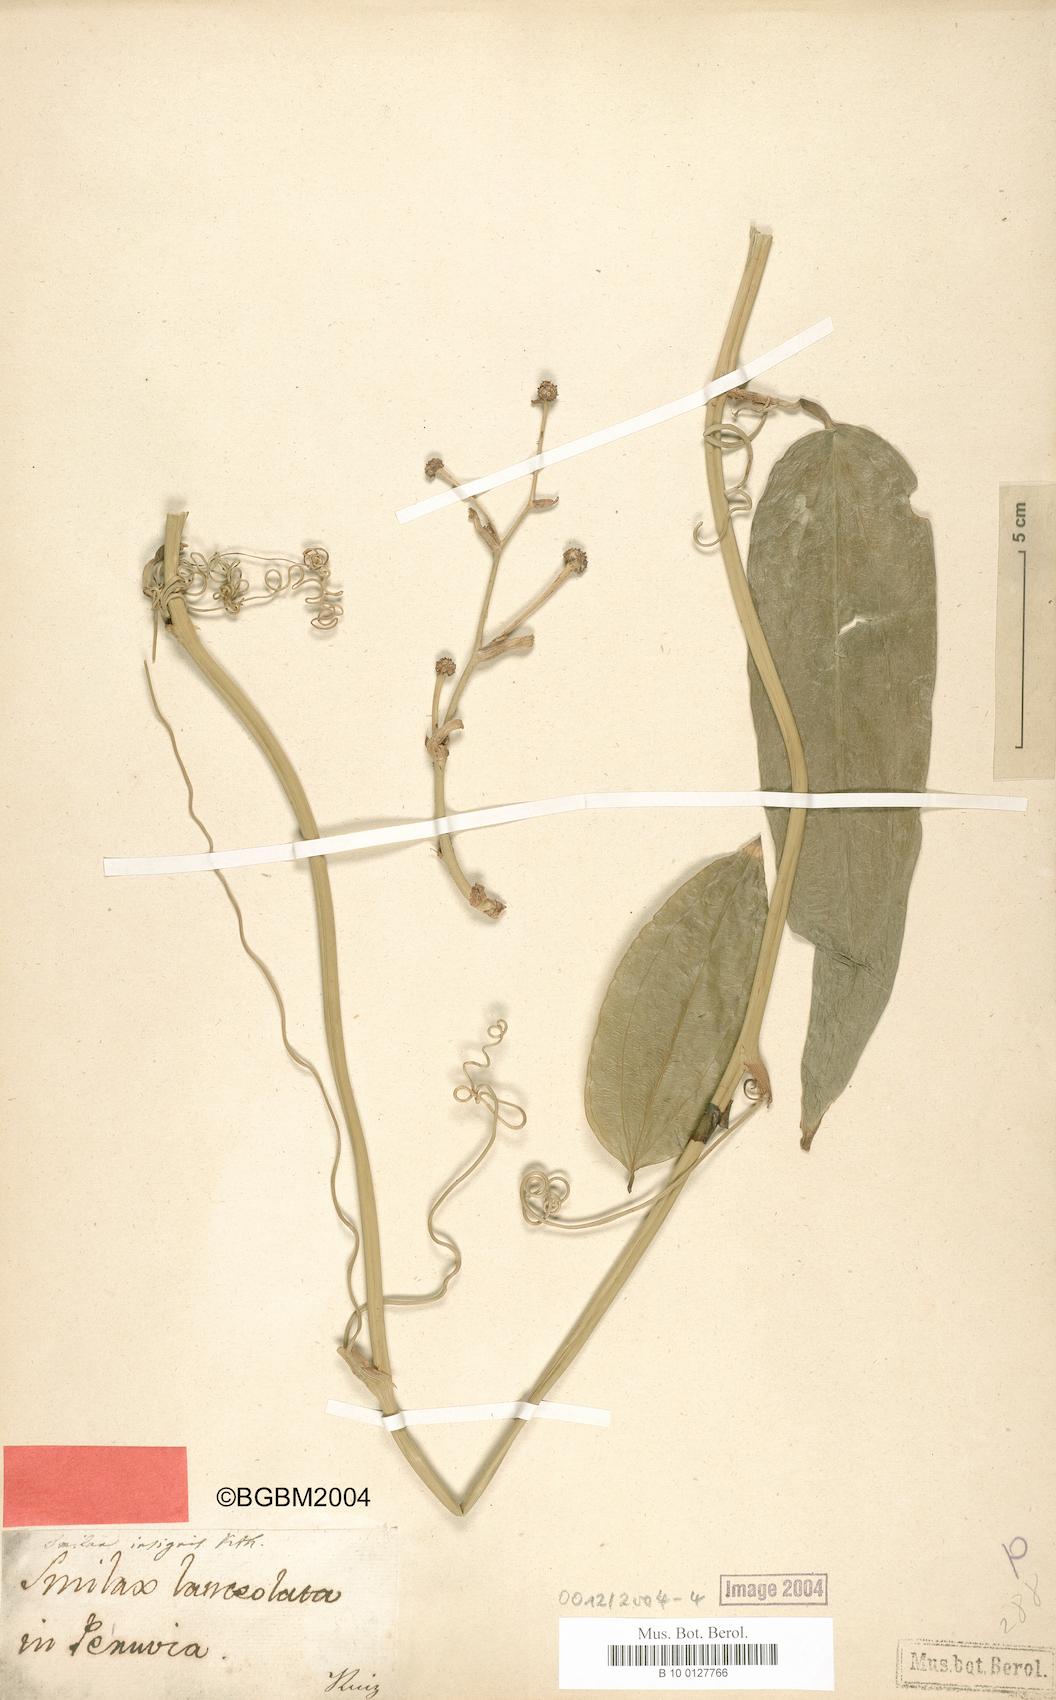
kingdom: Plantae
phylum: Tracheophyta
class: Liliopsida
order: Liliales
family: Smilacaceae
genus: Smilax
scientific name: Smilax purhampuy
